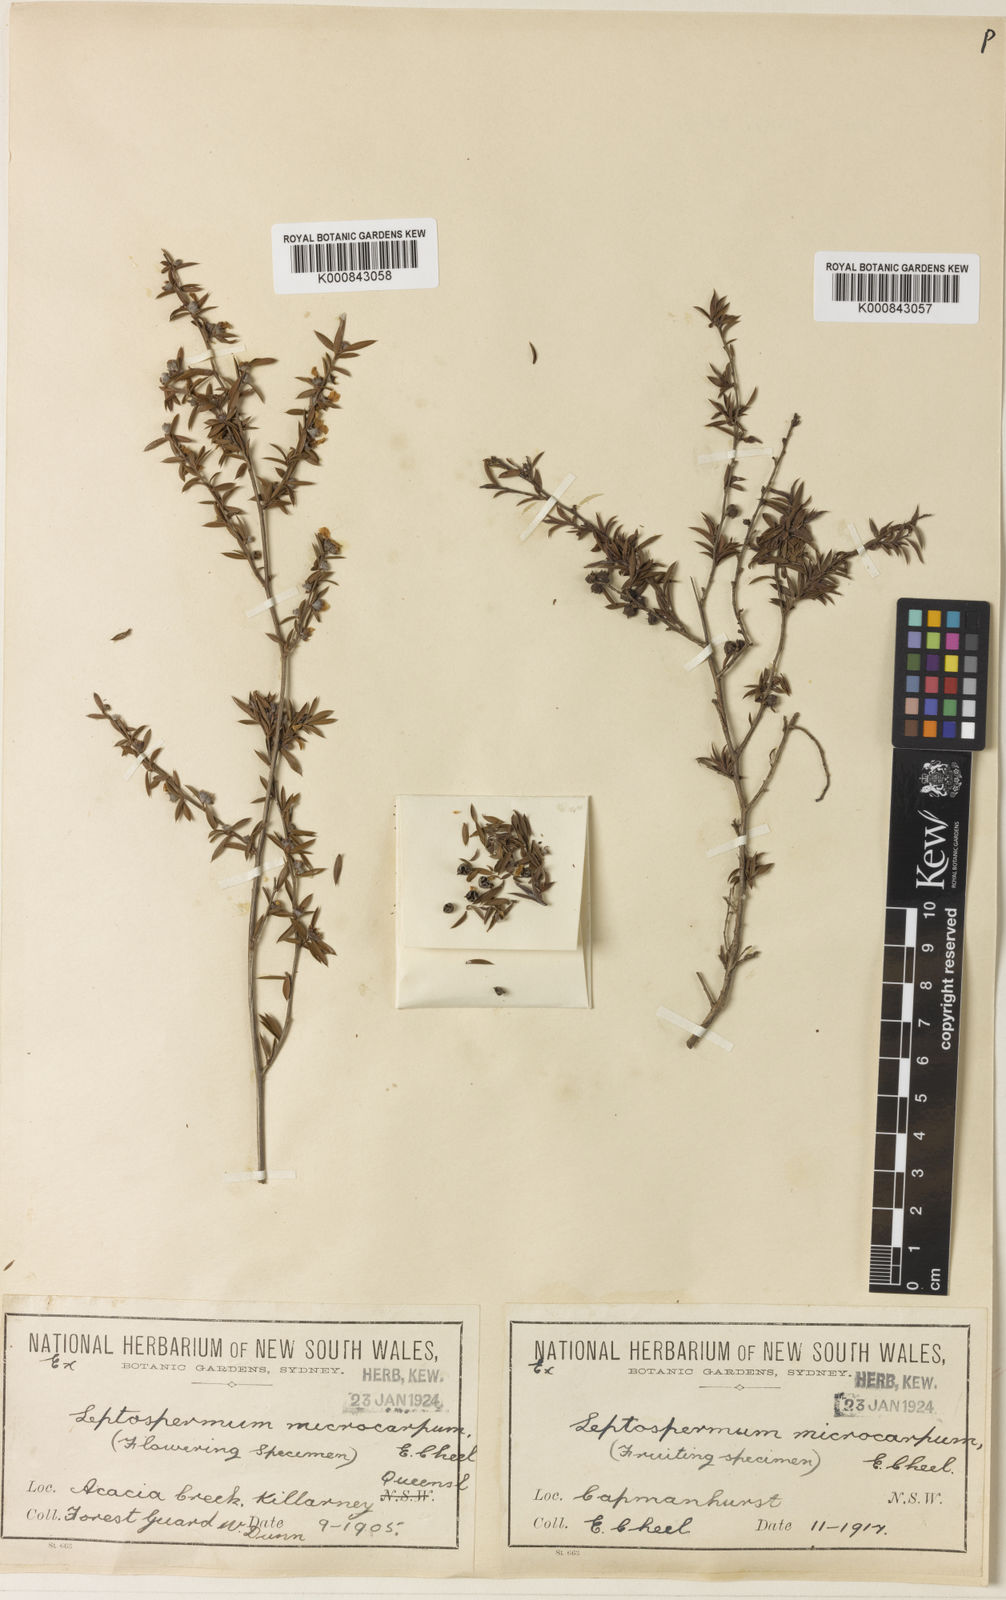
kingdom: Plantae
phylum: Tracheophyta
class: Magnoliopsida
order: Myrtales
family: Myrtaceae
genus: Leptospermum
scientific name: Leptospermum microcarpum
